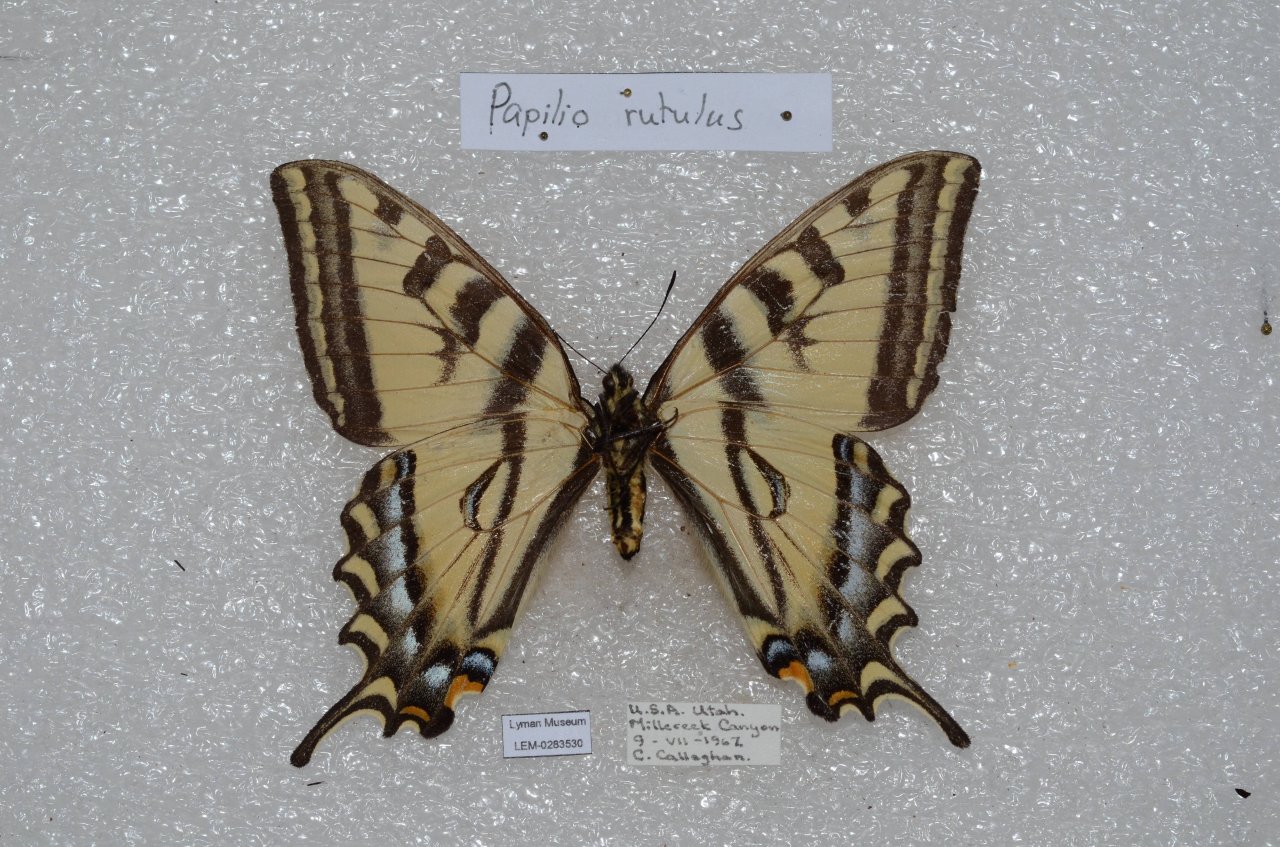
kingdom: Animalia
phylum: Arthropoda
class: Insecta
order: Lepidoptera
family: Papilionidae
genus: Pterourus
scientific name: Pterourus rutulus
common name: Western Tiger Swallowtail
